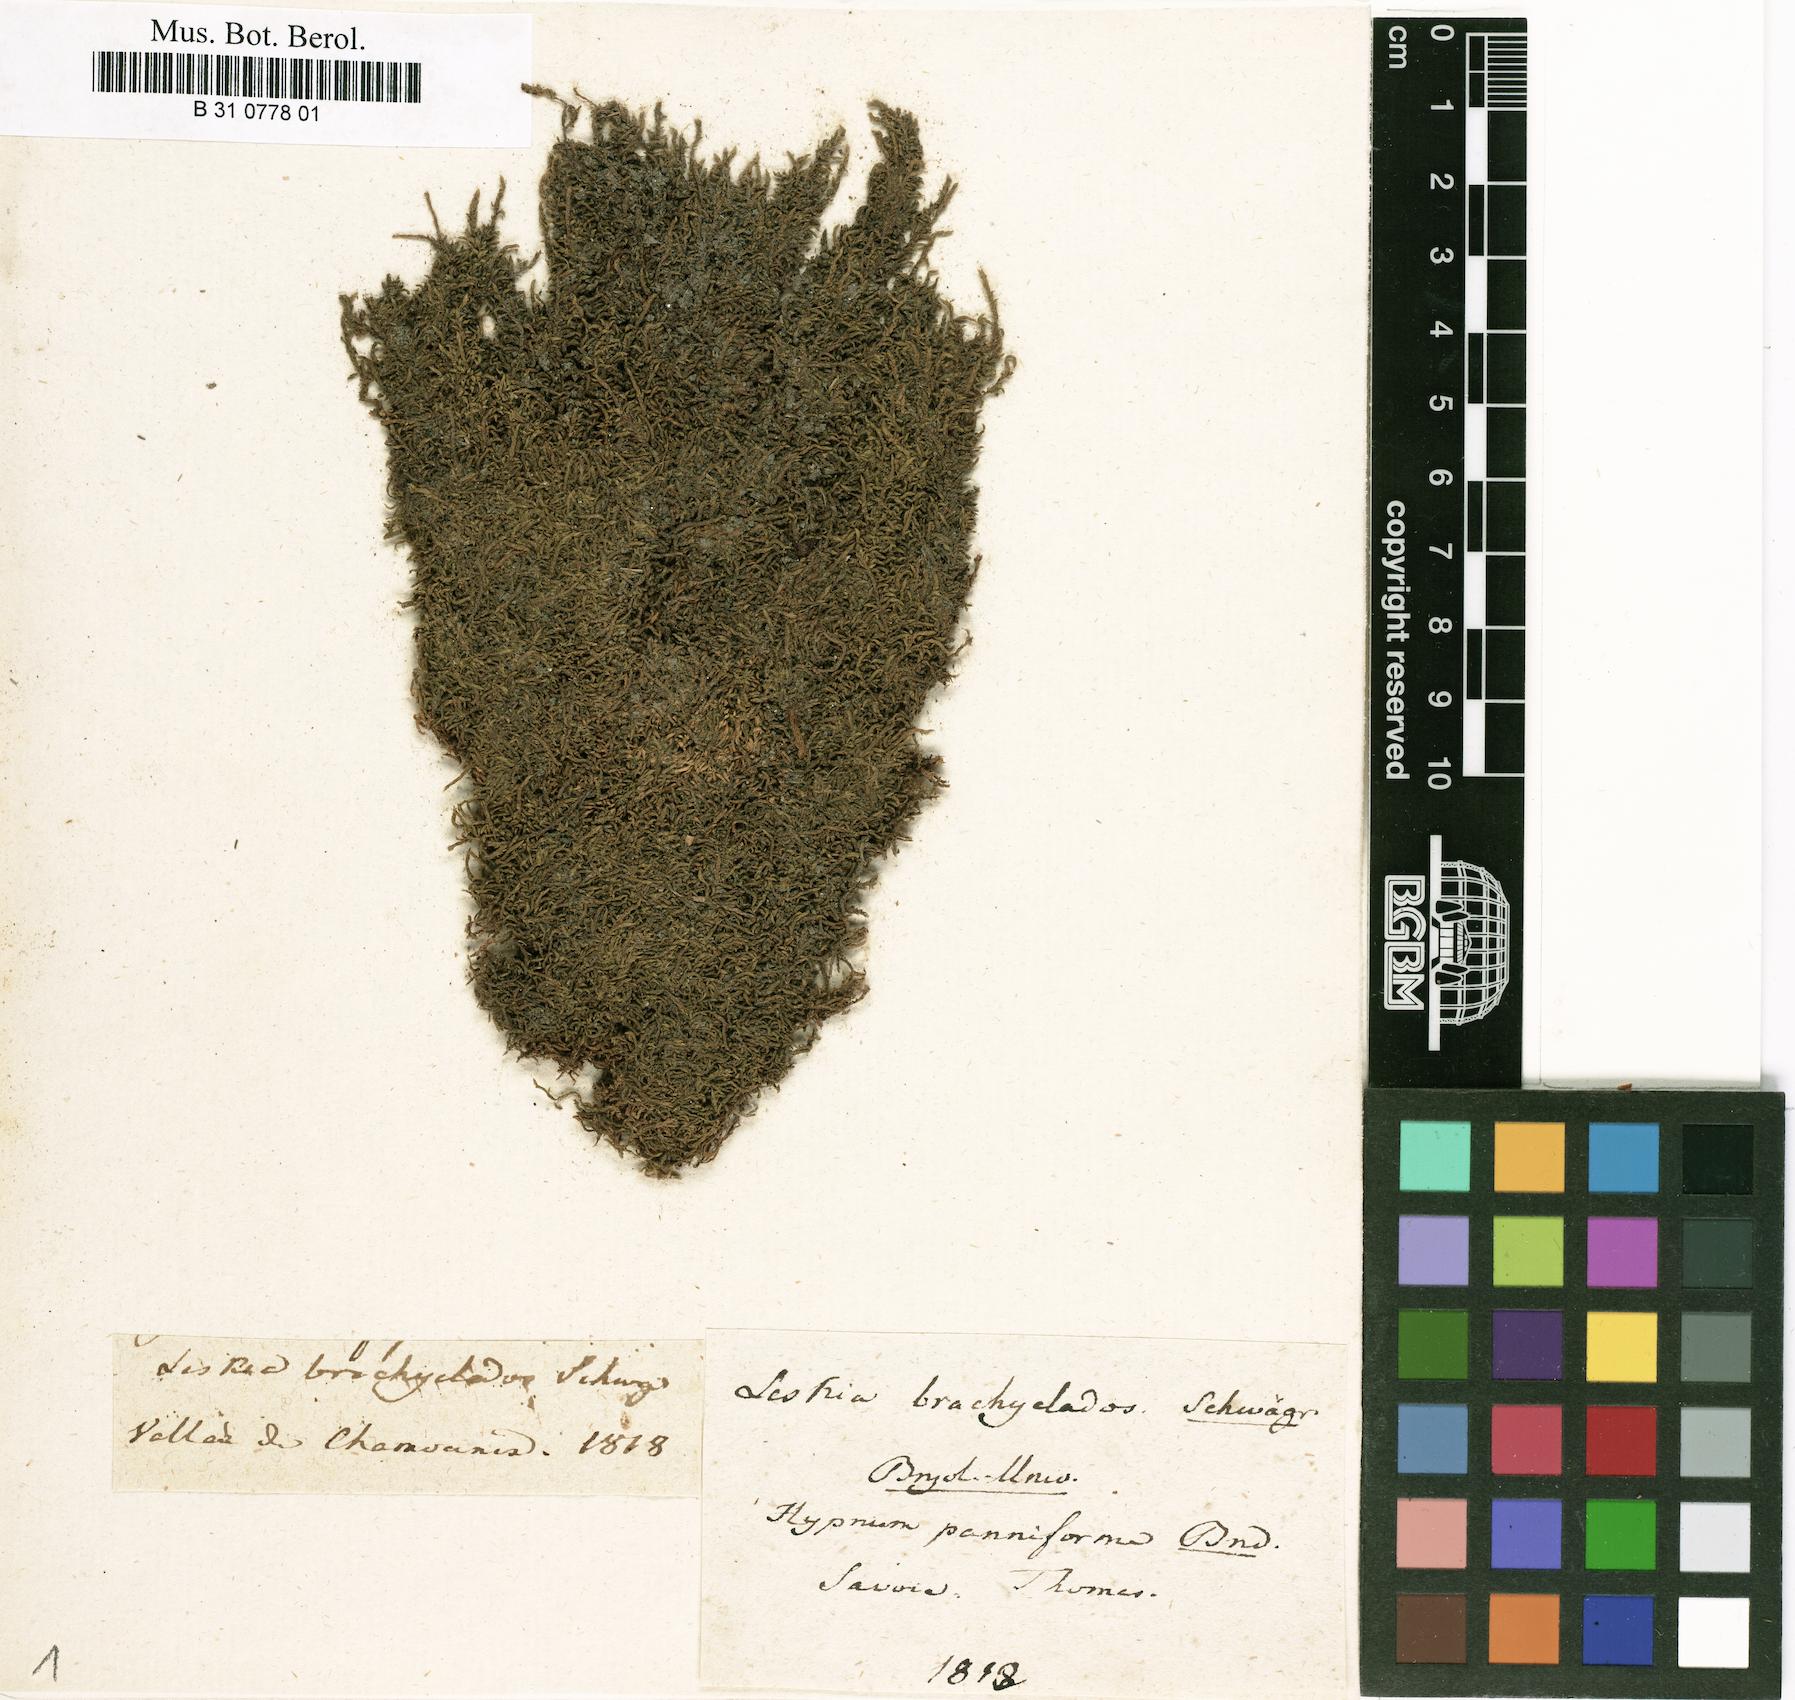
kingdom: Plantae
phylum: Bryophyta
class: Bryopsida
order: Hypnales
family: Pseudoleskeaceae
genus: Lescuraea
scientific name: Lescuraea brachyclados
